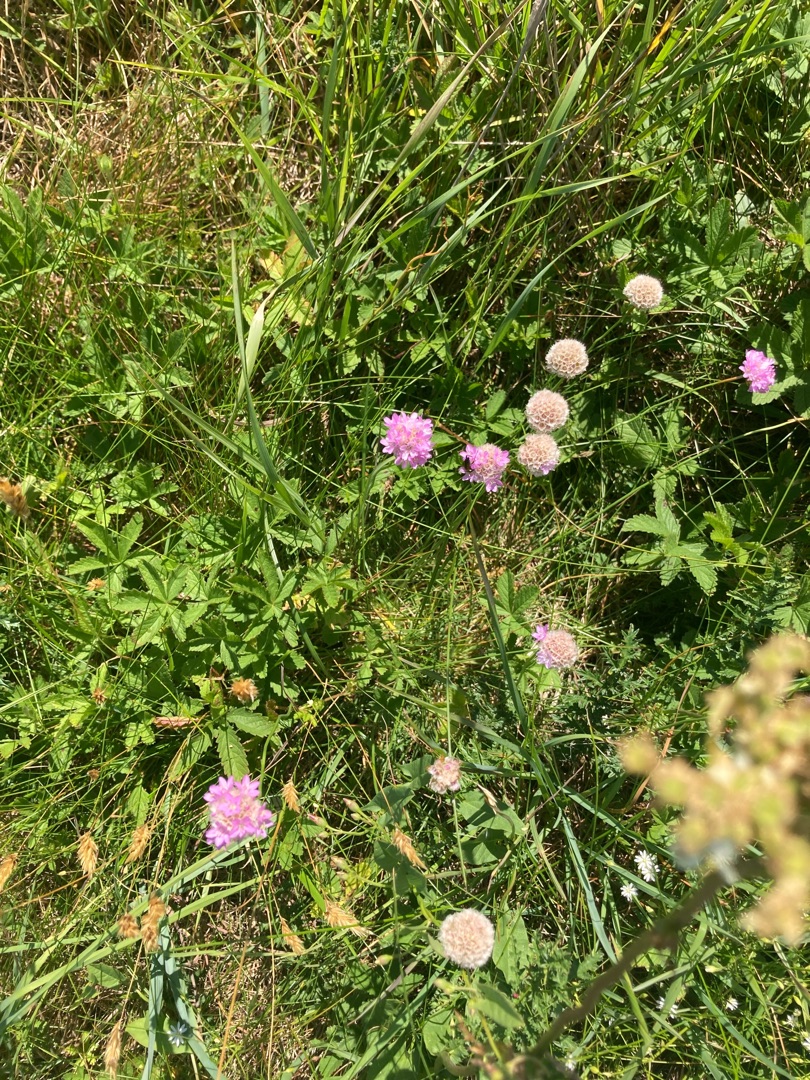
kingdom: Plantae
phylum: Tracheophyta
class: Magnoliopsida
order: Caryophyllales
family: Plumbaginaceae
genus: Armeria
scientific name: Armeria maritima
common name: Engelskgræs
